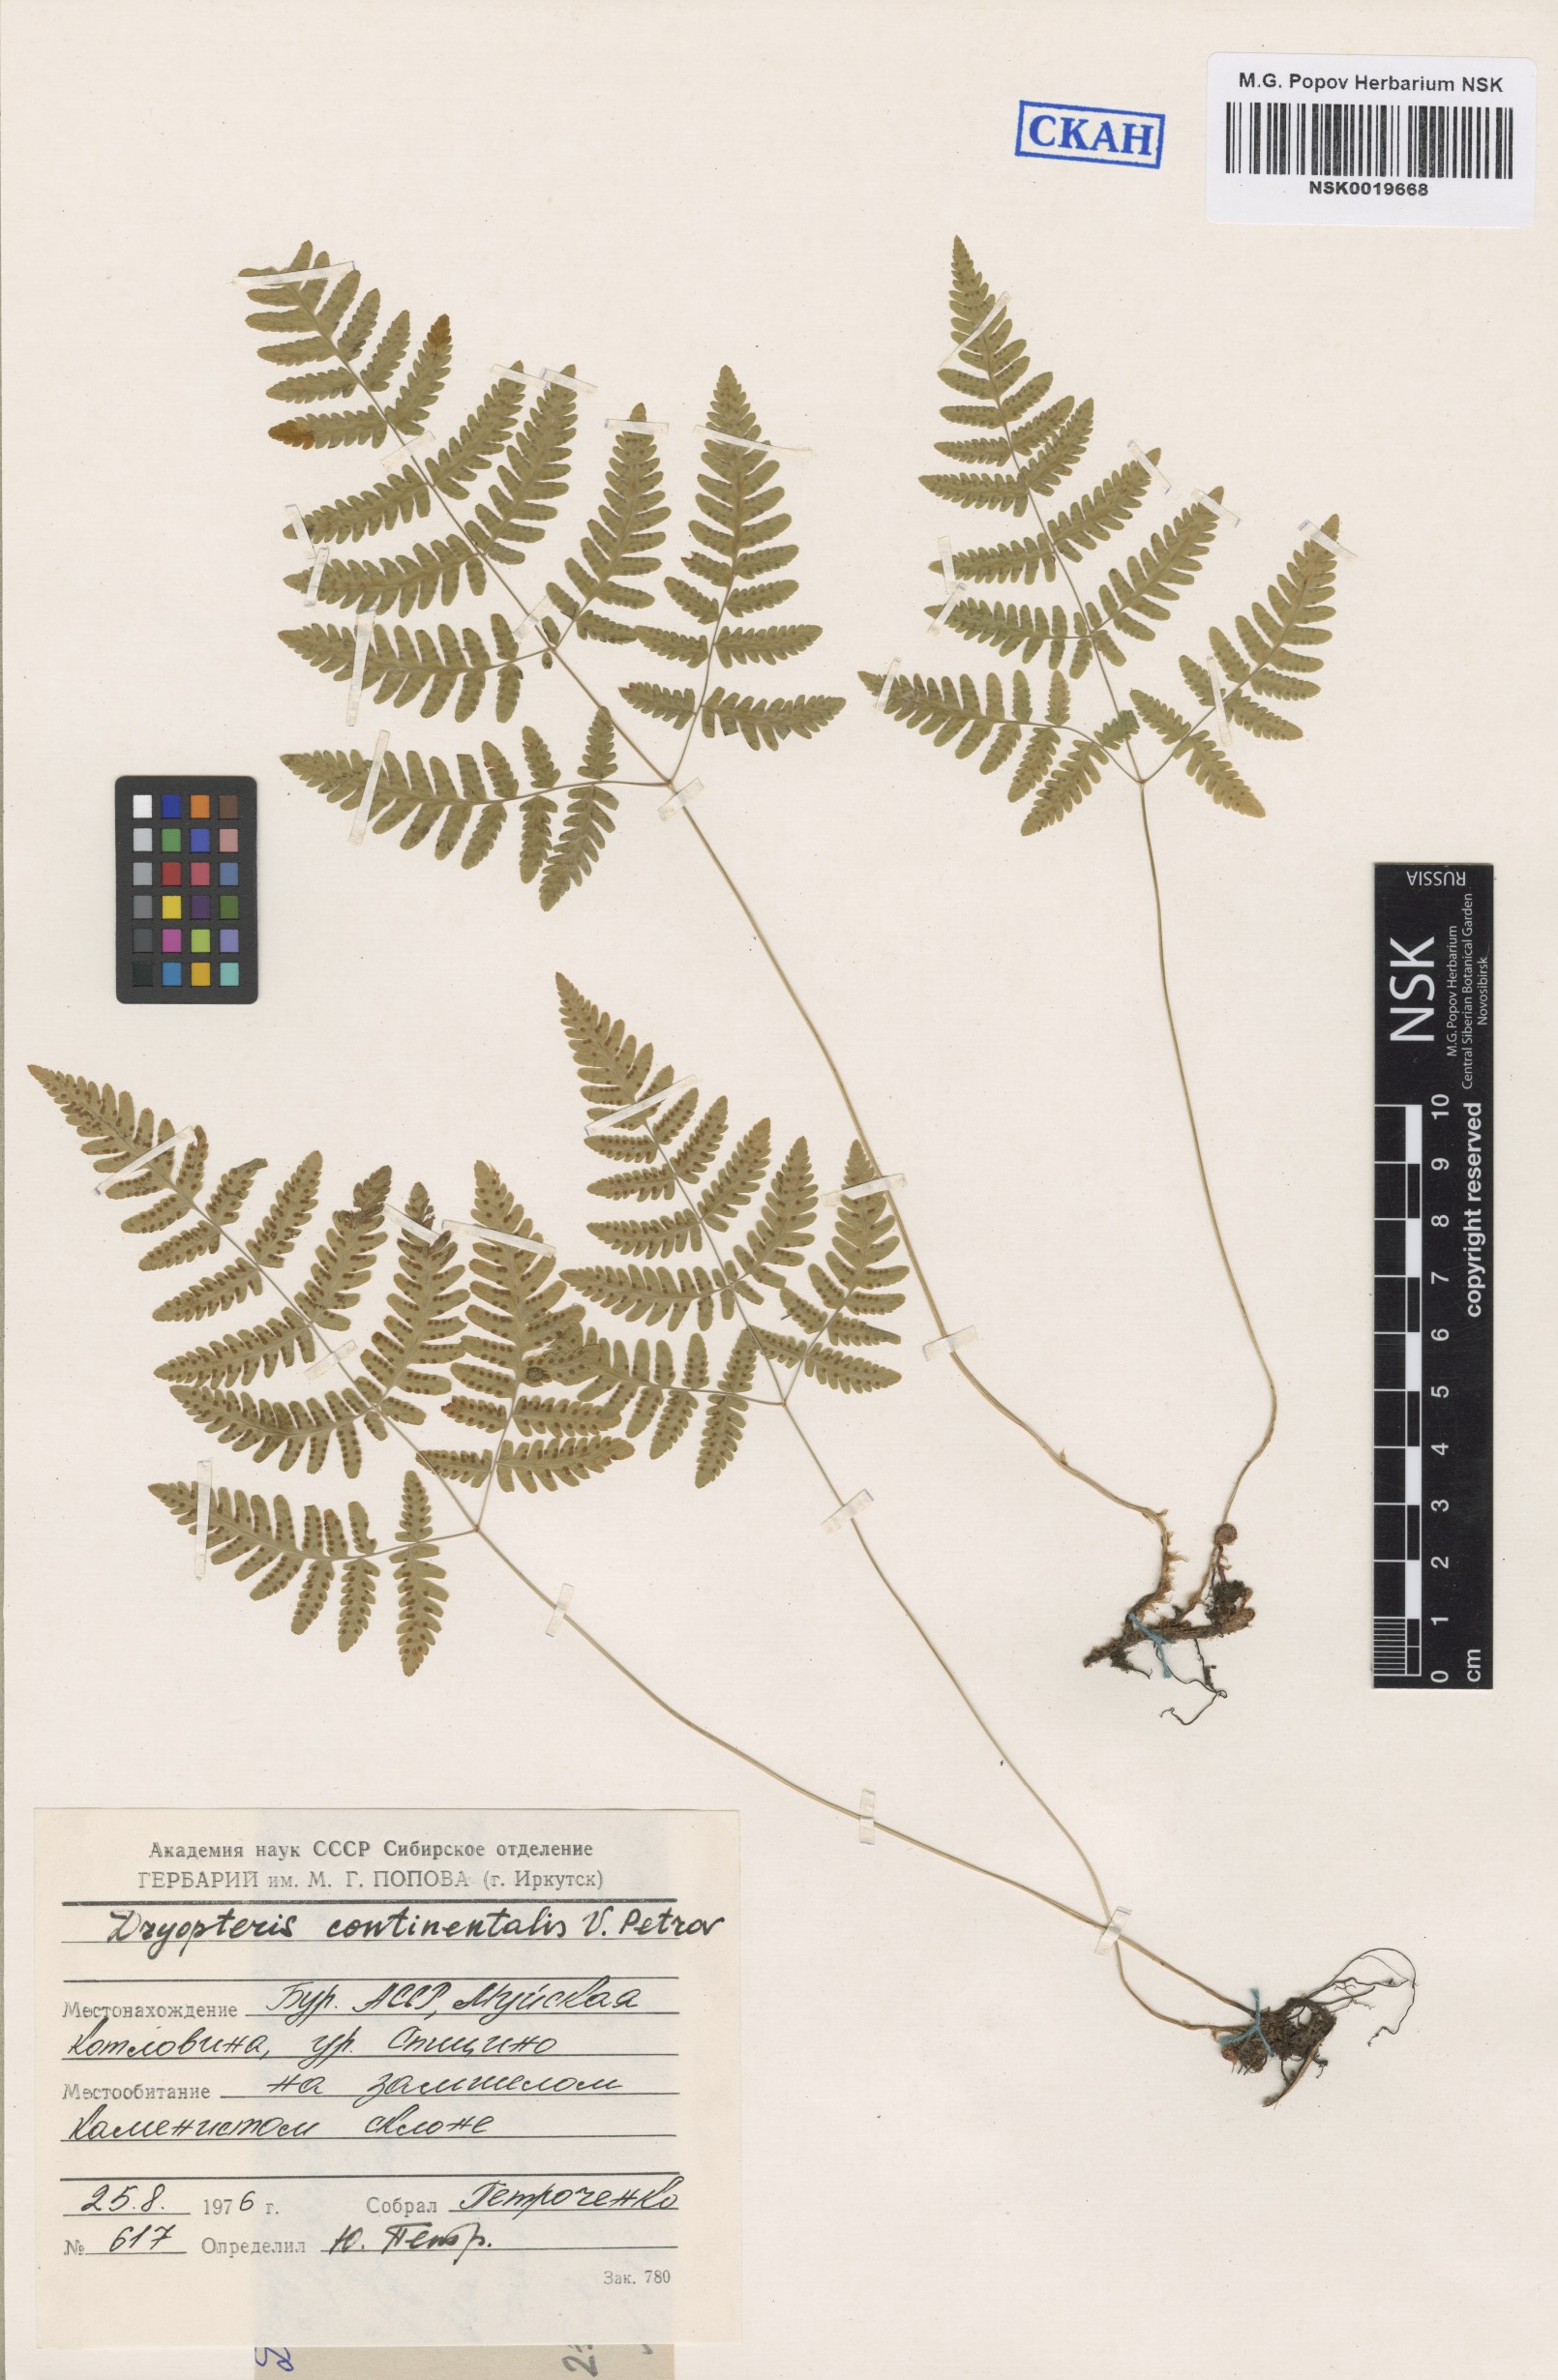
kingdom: Plantae
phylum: Tracheophyta
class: Polypodiopsida
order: Polypodiales
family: Cystopteridaceae
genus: Gymnocarpium
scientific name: Gymnocarpium continentale
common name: Asian oak fern
